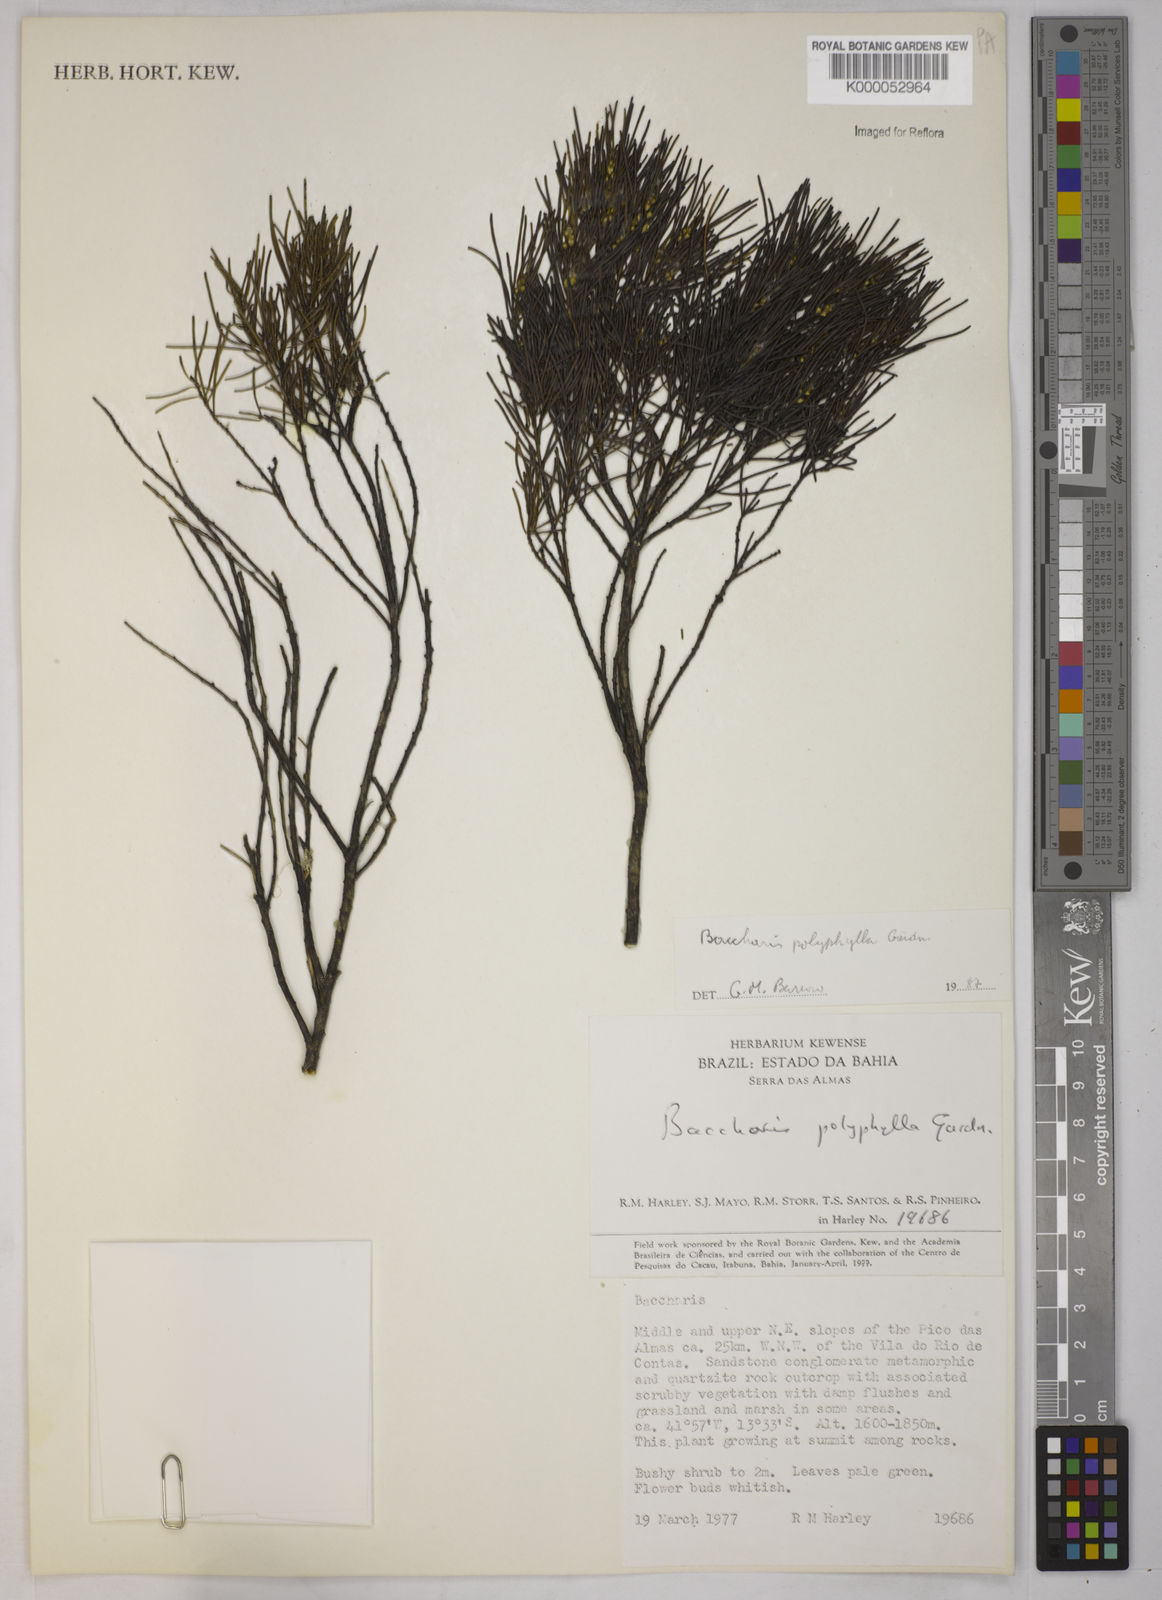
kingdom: Plantae
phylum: Tracheophyta
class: Magnoliopsida
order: Asterales
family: Asteraceae
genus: Baccharis
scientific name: Baccharis polyphylla
